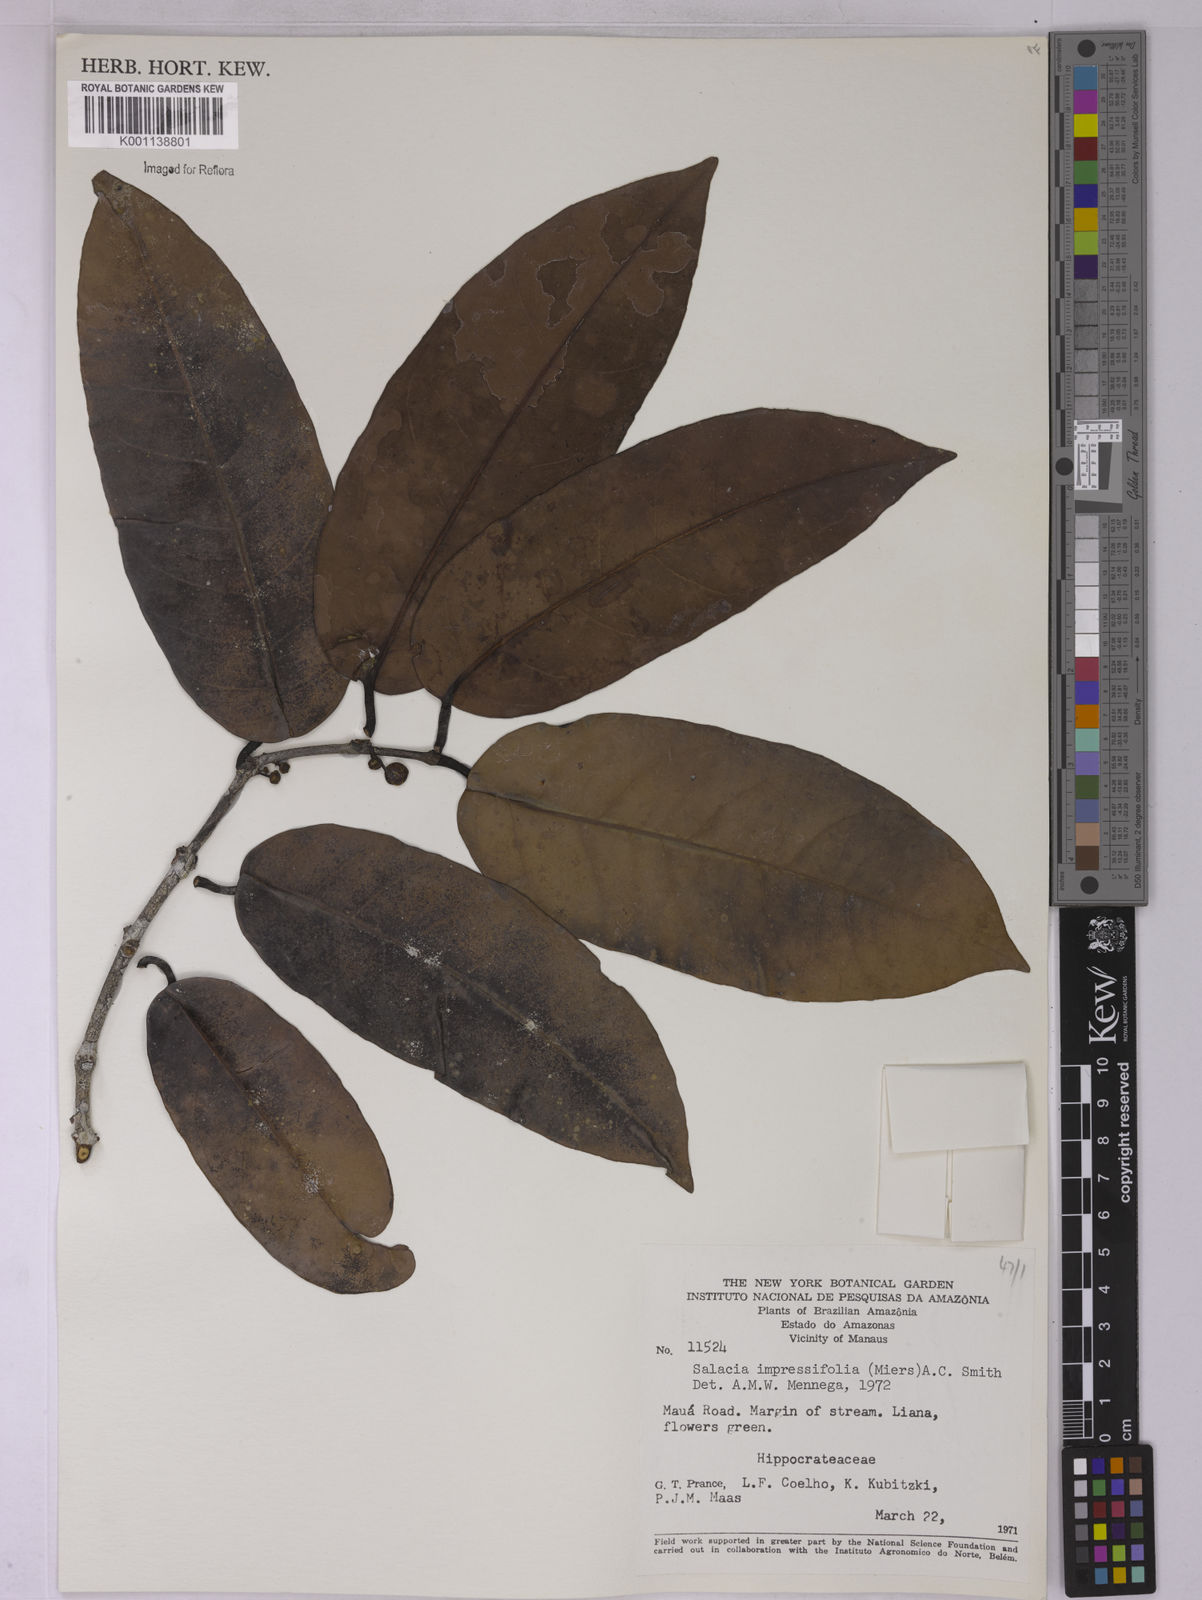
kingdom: Plantae
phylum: Tracheophyta
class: Magnoliopsida
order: Celastrales
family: Celastraceae
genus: Salacia
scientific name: Salacia impressifolia
